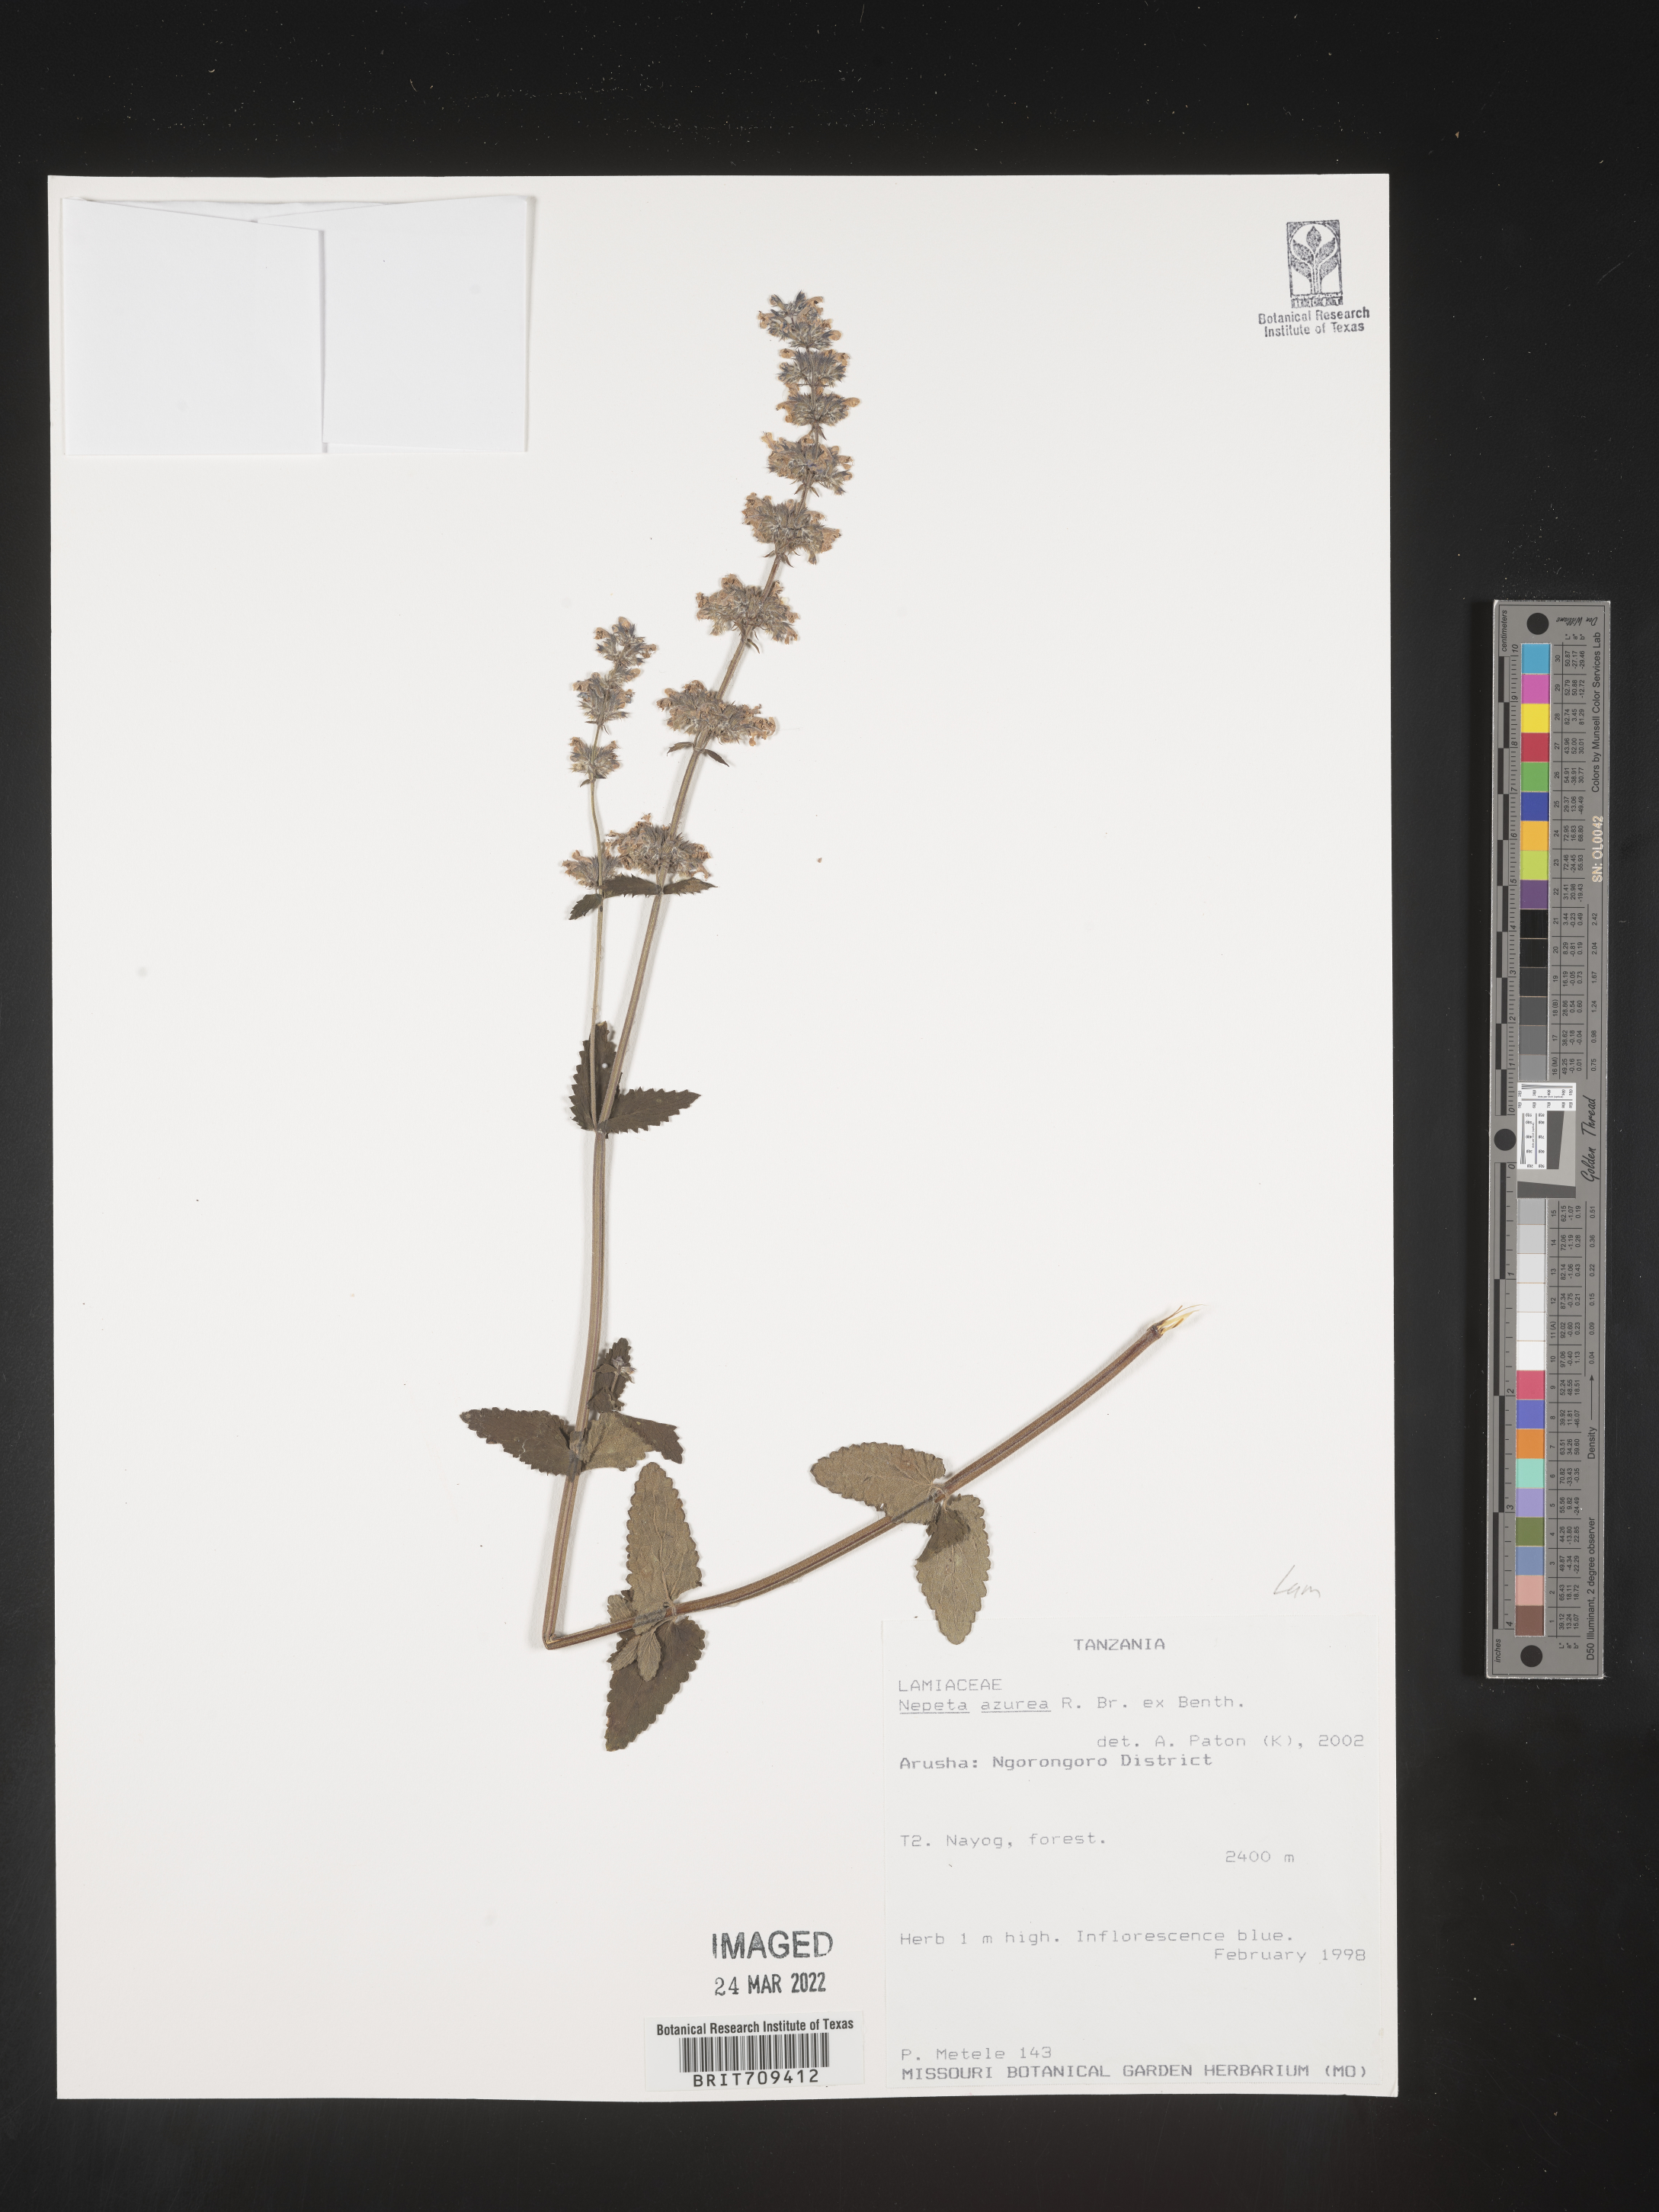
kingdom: Plantae
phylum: Tracheophyta
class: Magnoliopsida
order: Lamiales
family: Lamiaceae
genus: Nepeta
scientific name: Nepeta
